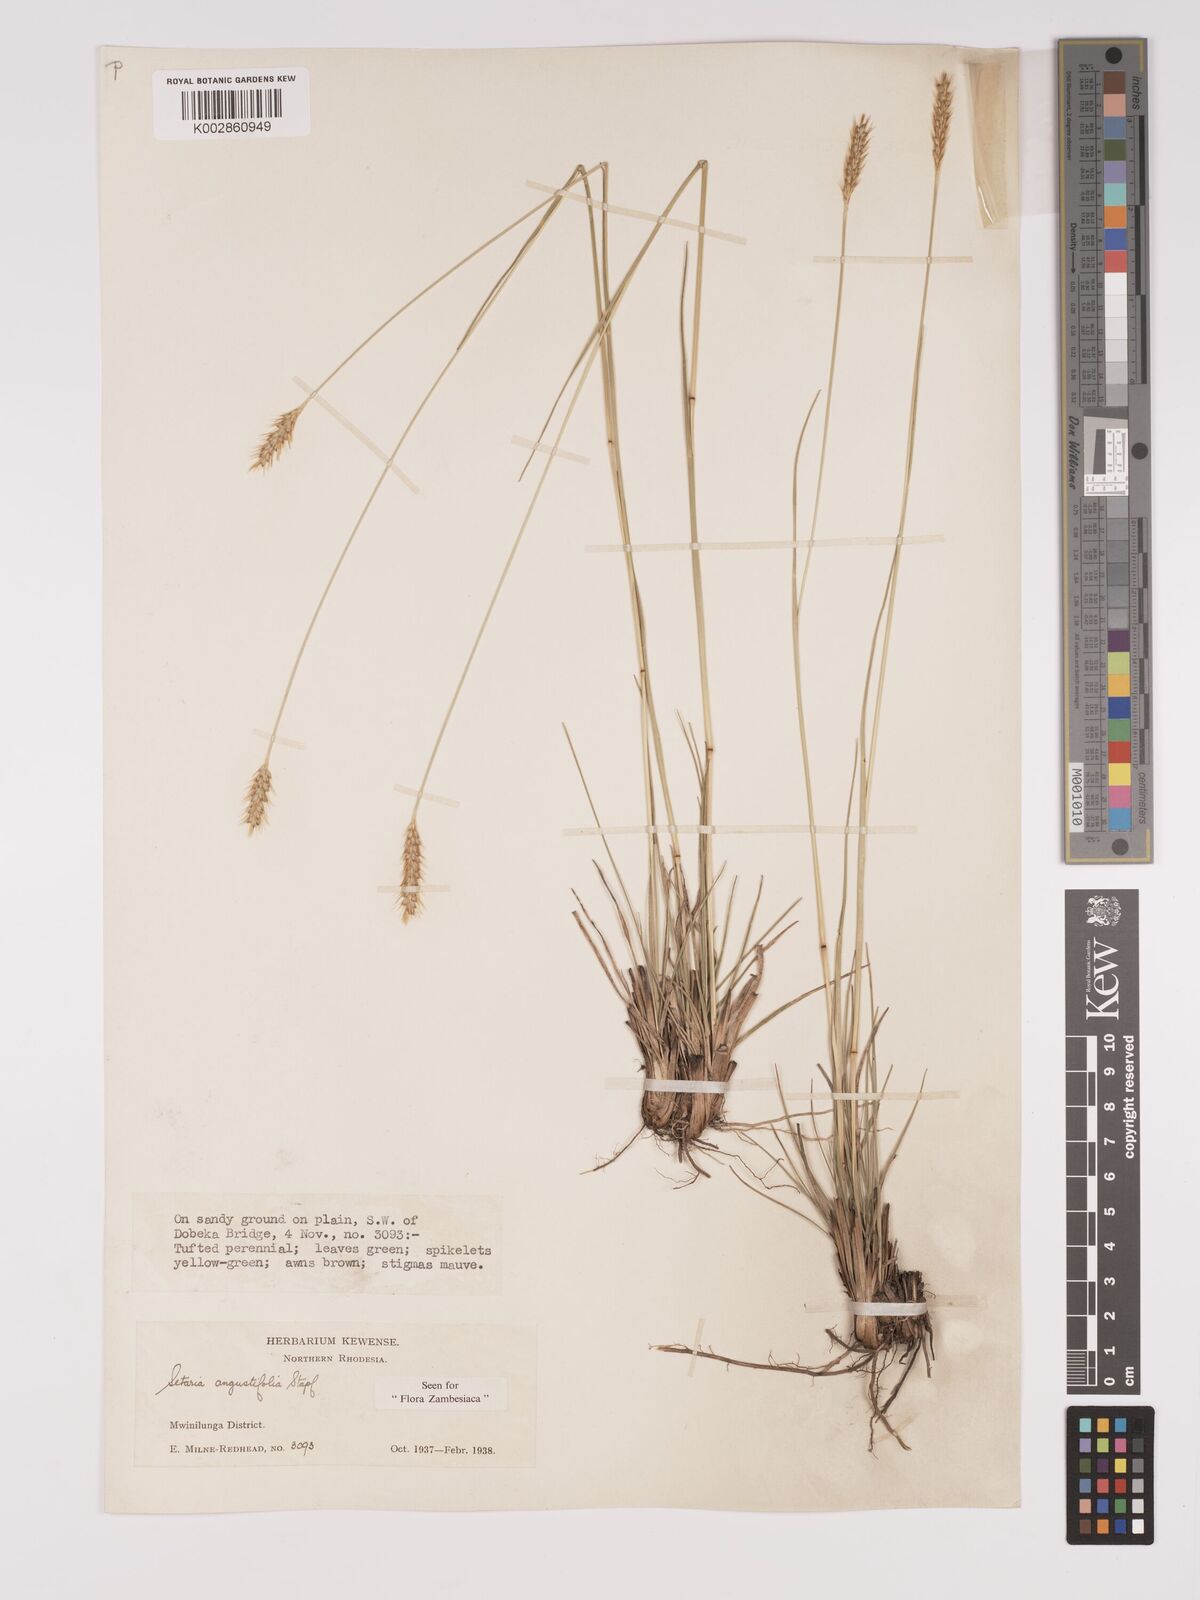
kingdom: Plantae
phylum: Tracheophyta
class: Liliopsida
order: Poales
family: Poaceae
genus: Setaria
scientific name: Setaria
